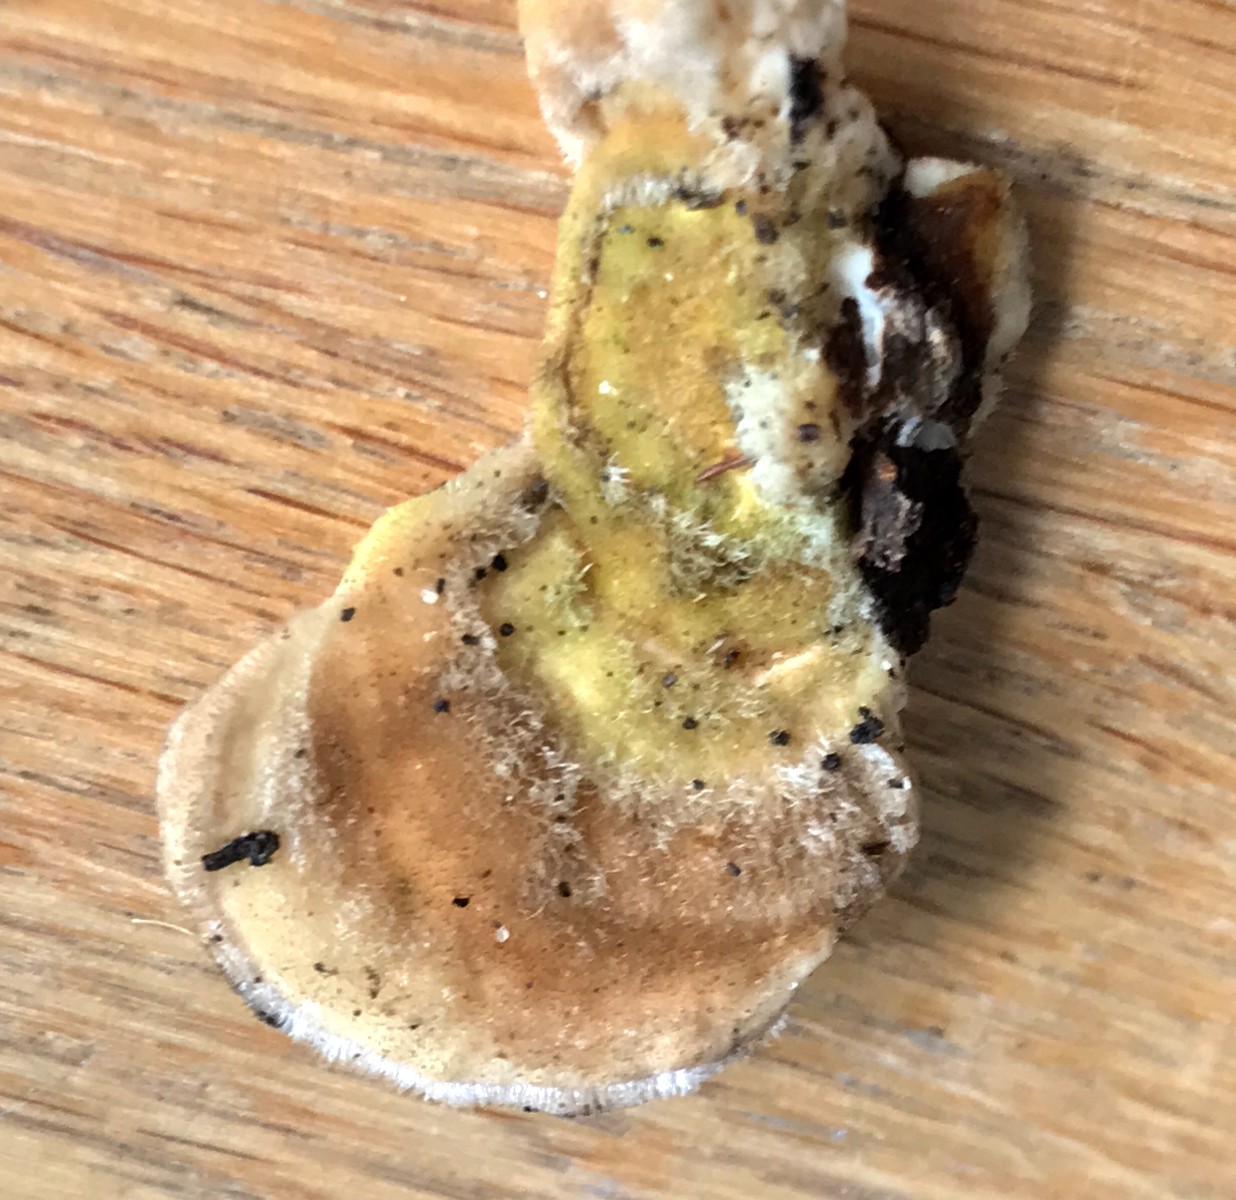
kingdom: Fungi
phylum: Basidiomycota
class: Agaricomycetes
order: Polyporales
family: Polyporaceae
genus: Lenzites
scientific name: Lenzites betulinus
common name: birke-læderporesvamp
